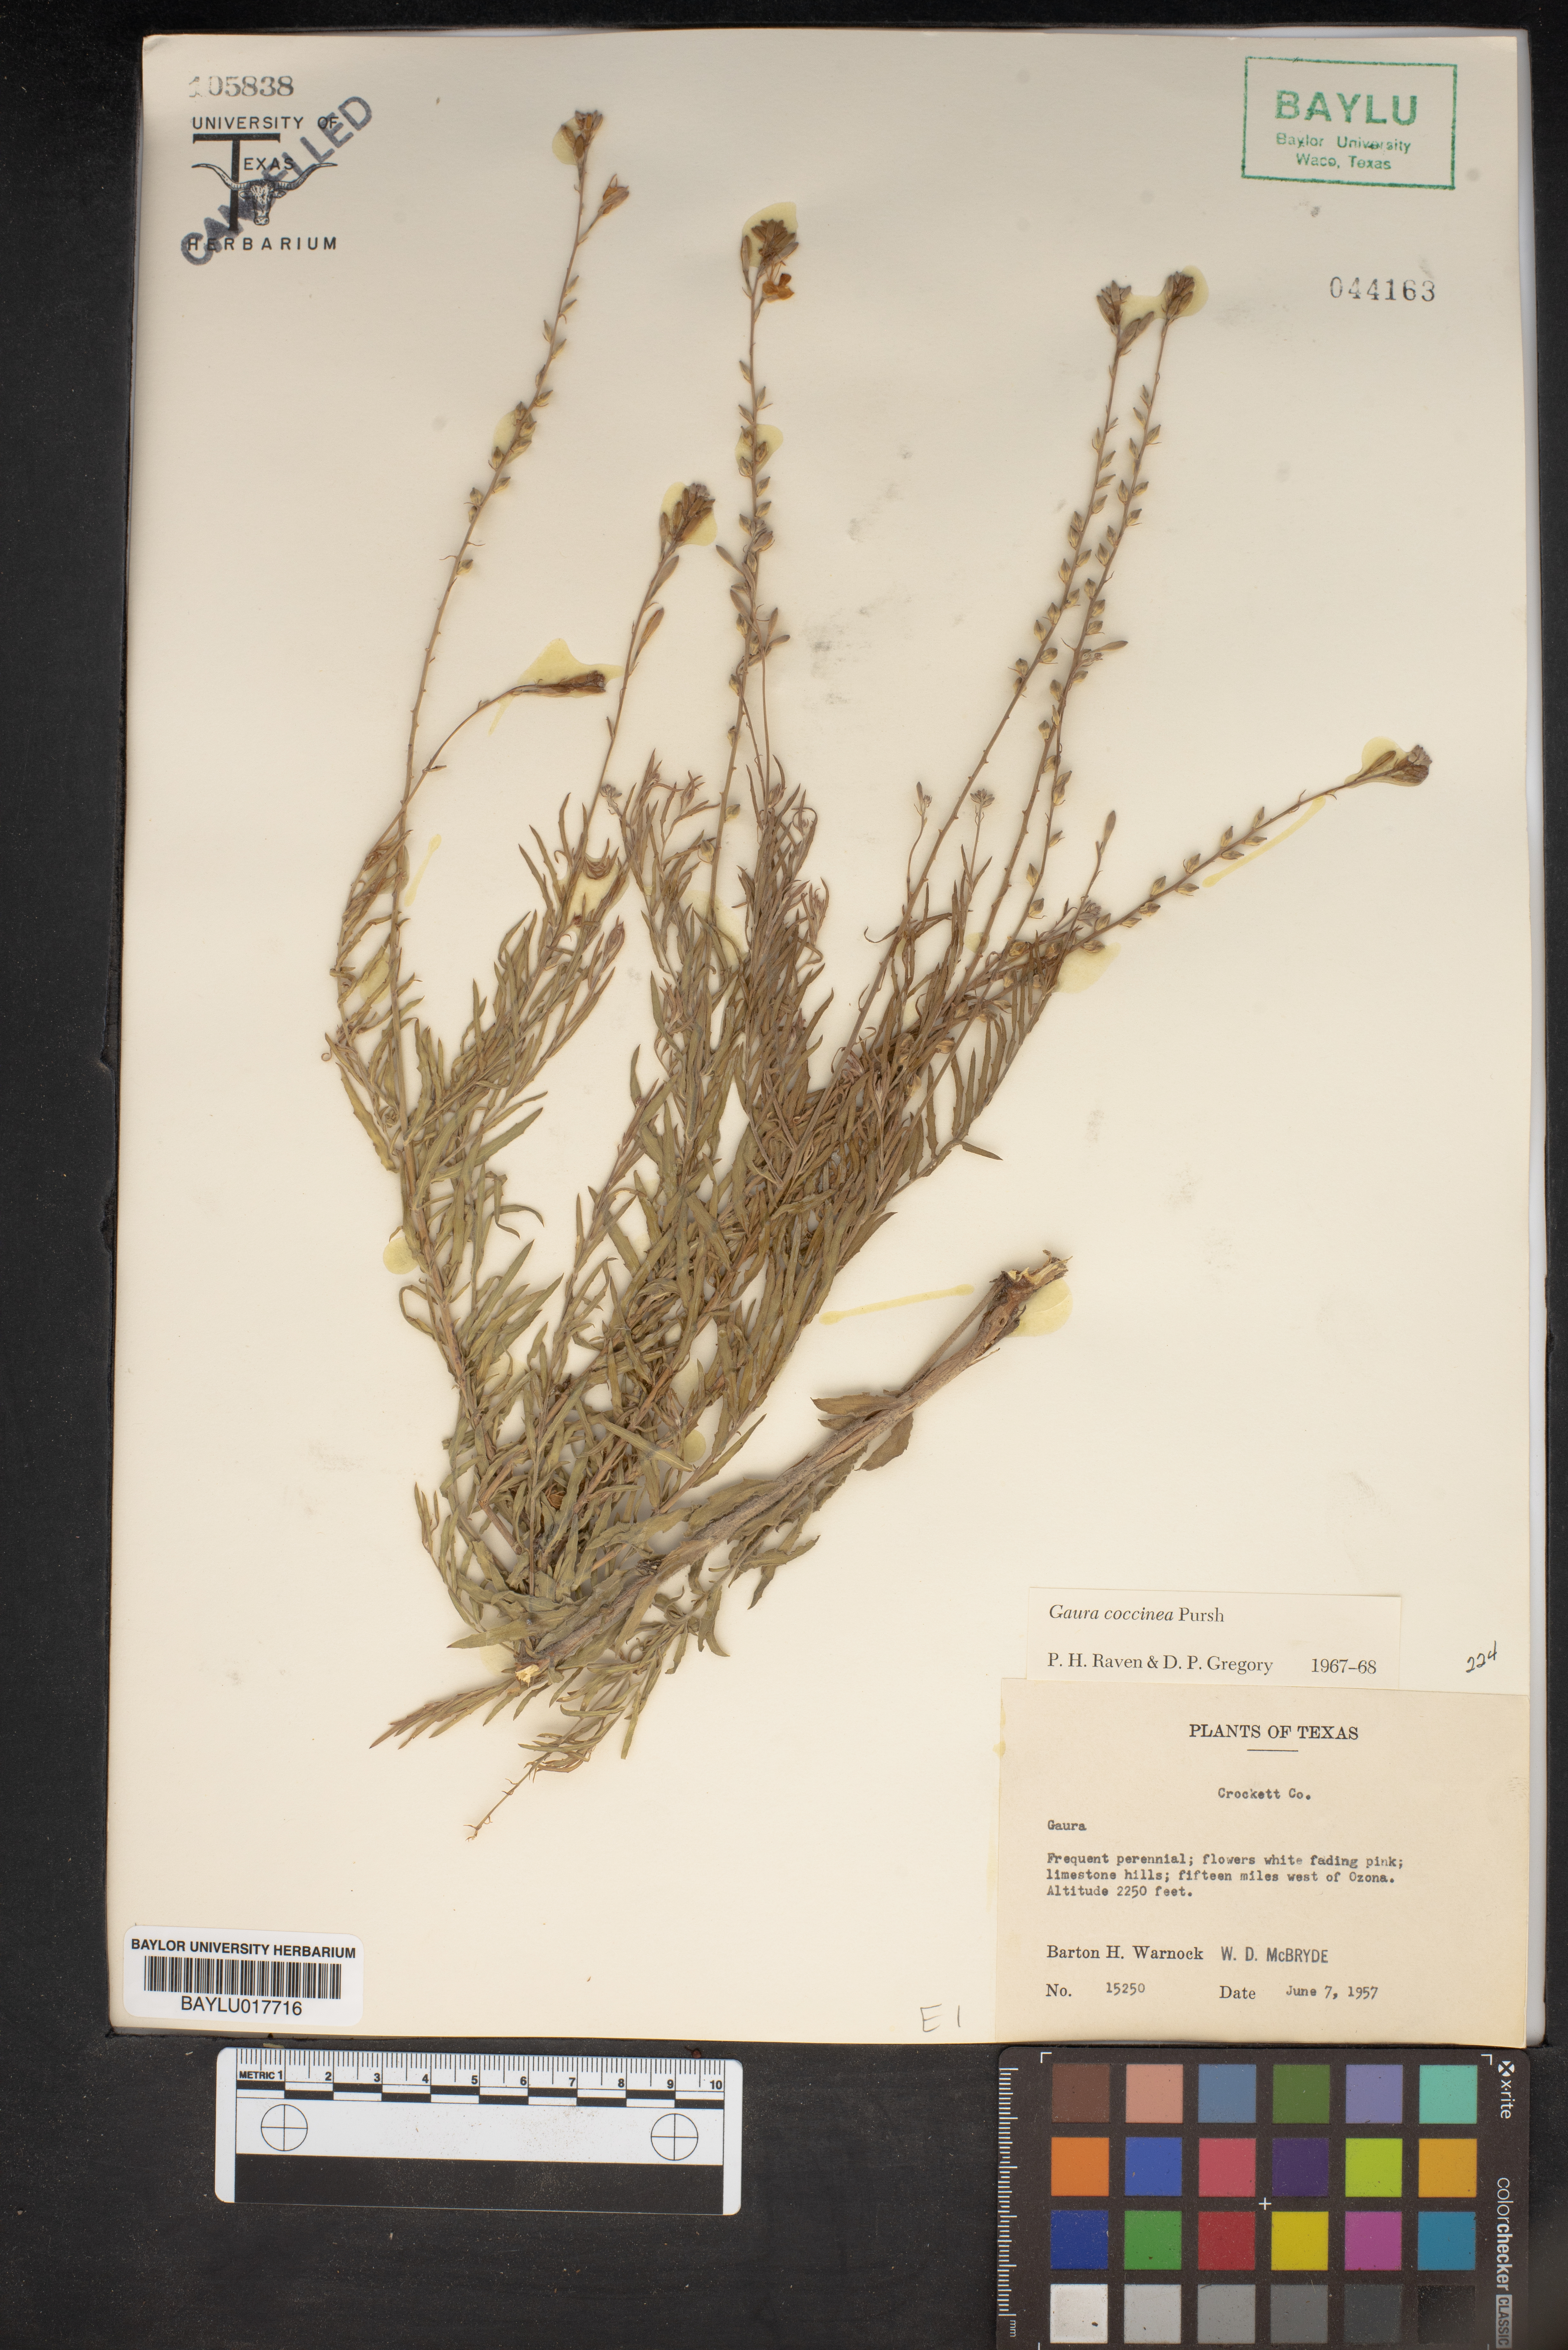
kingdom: Plantae
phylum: Tracheophyta
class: Magnoliopsida
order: Myrtales
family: Onagraceae
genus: Oenothera
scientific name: Oenothera suffrutescens
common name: Scarlet beeblossom
